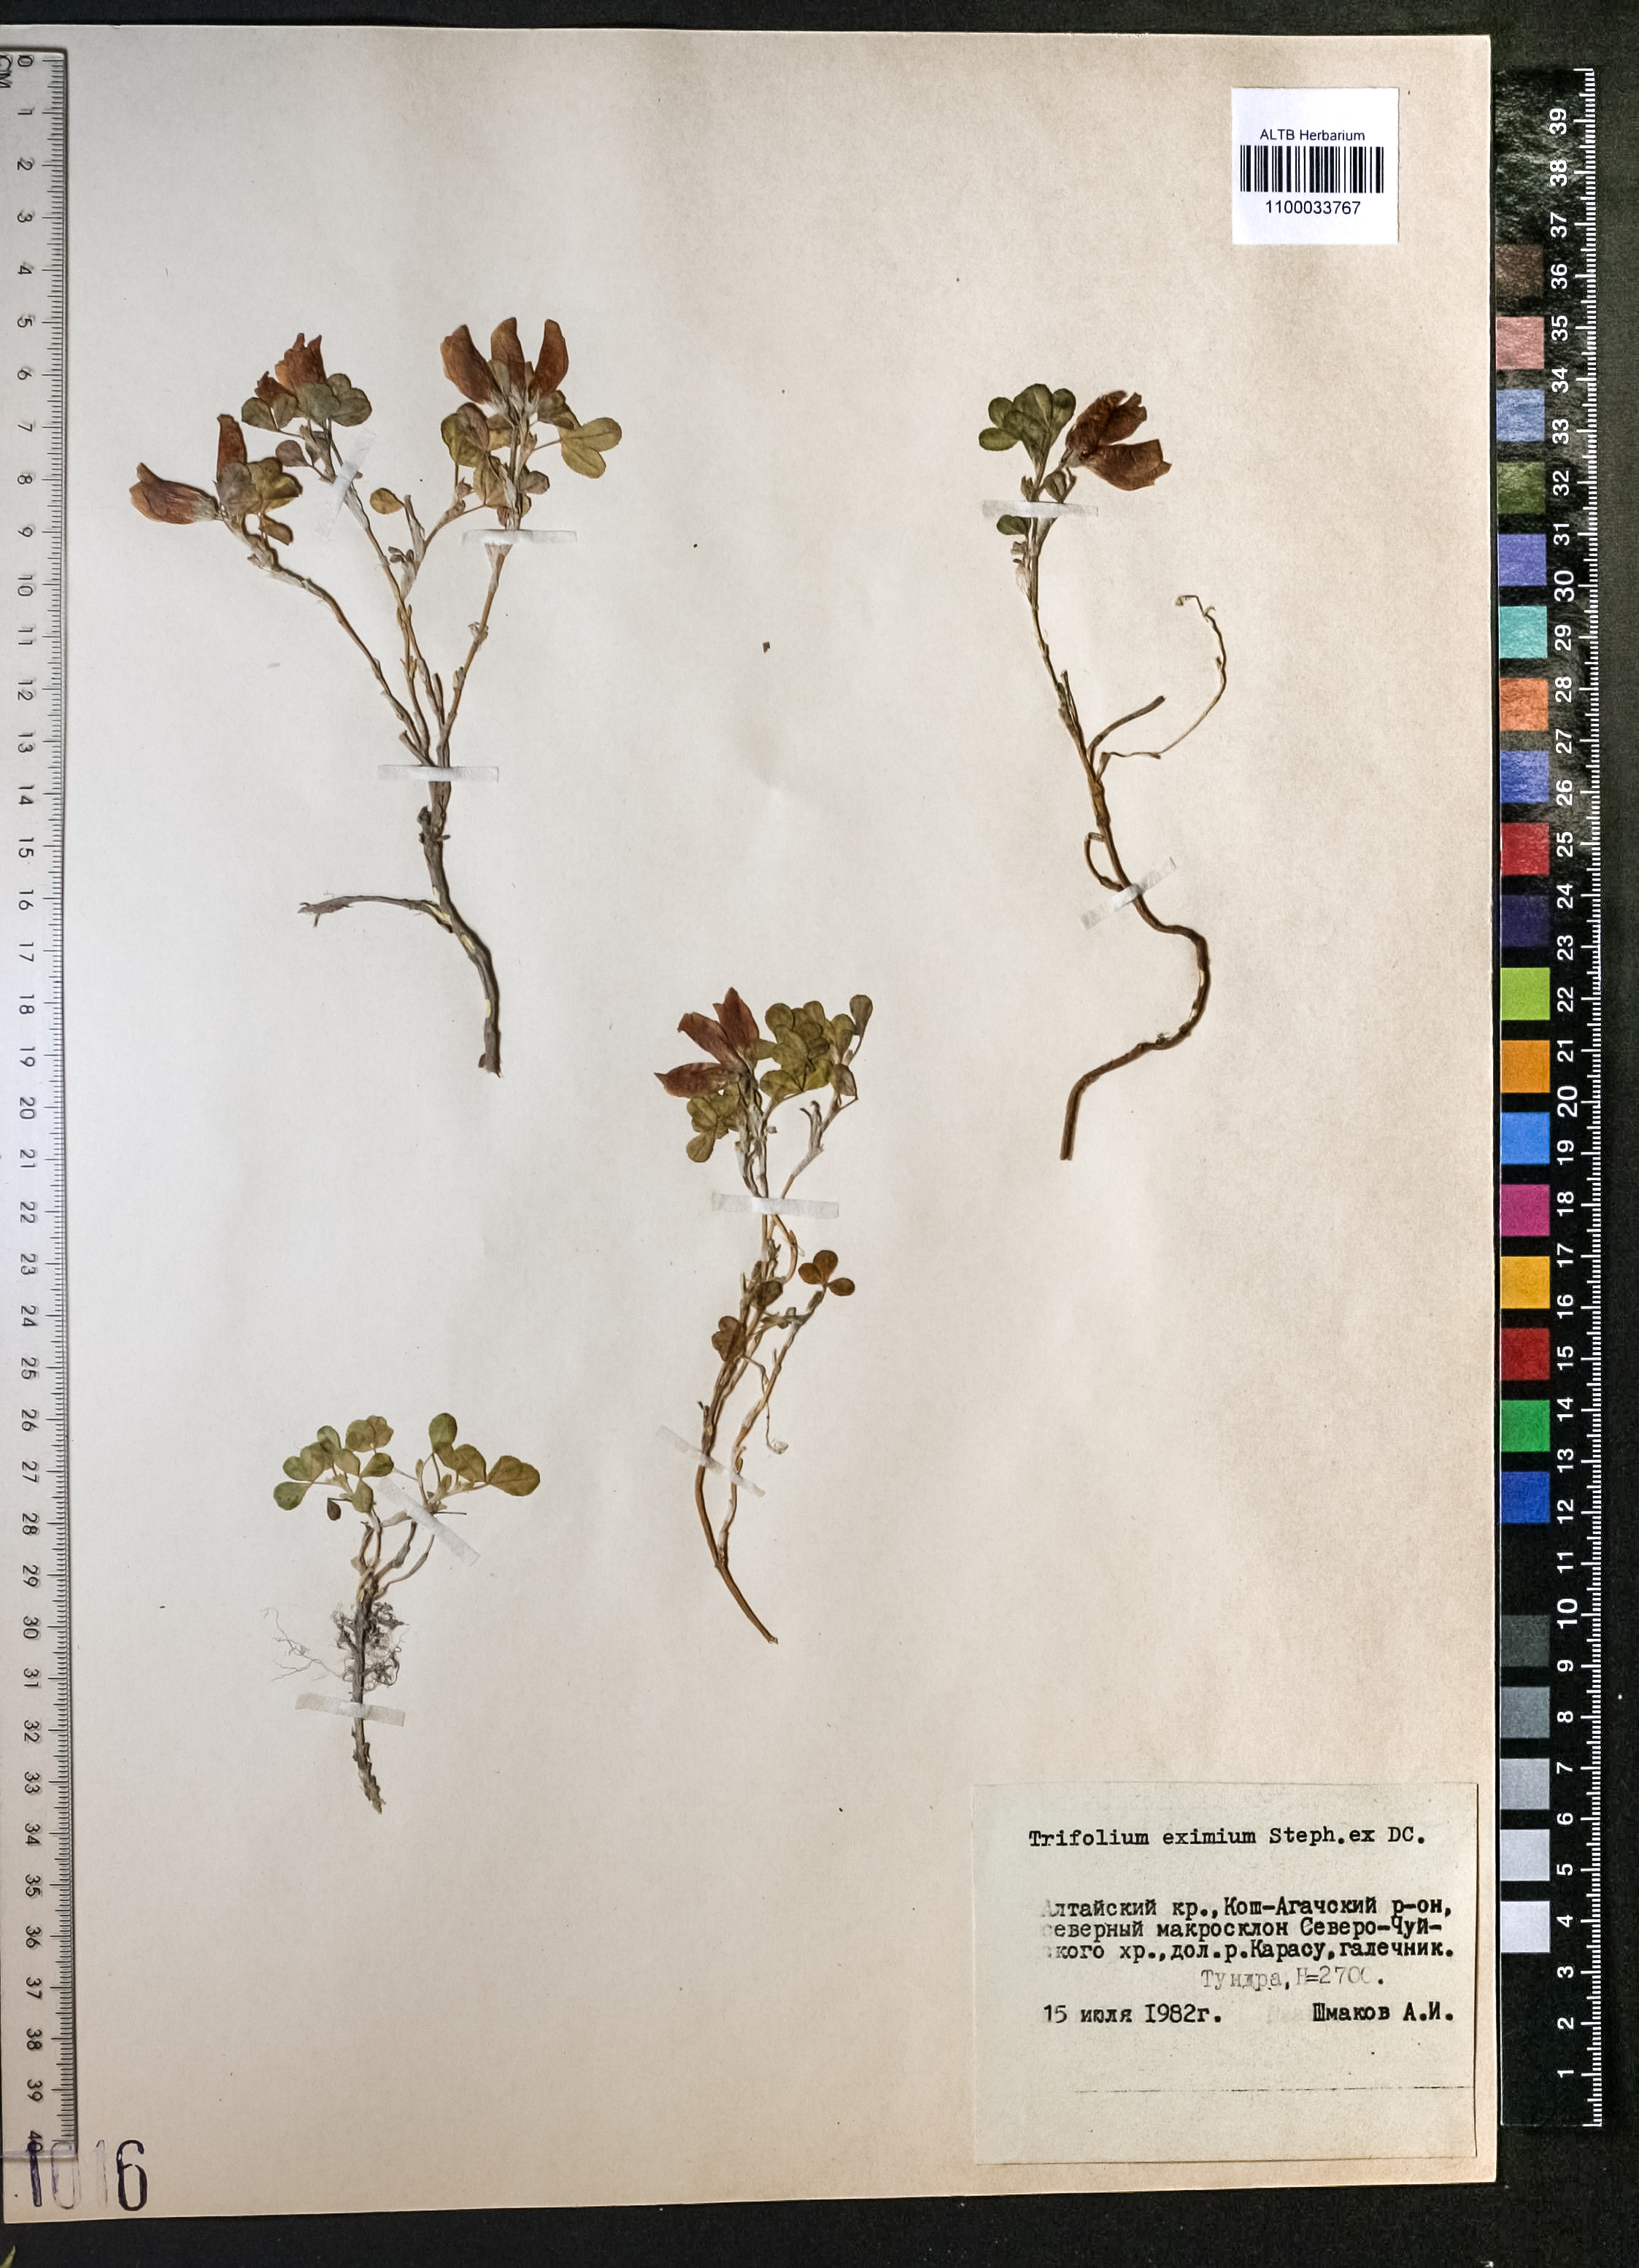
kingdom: Plantae
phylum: Tracheophyta
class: Magnoliopsida
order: Fabales
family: Fabaceae
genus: Trifolium
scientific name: Trifolium eximium
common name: Excellent clover
